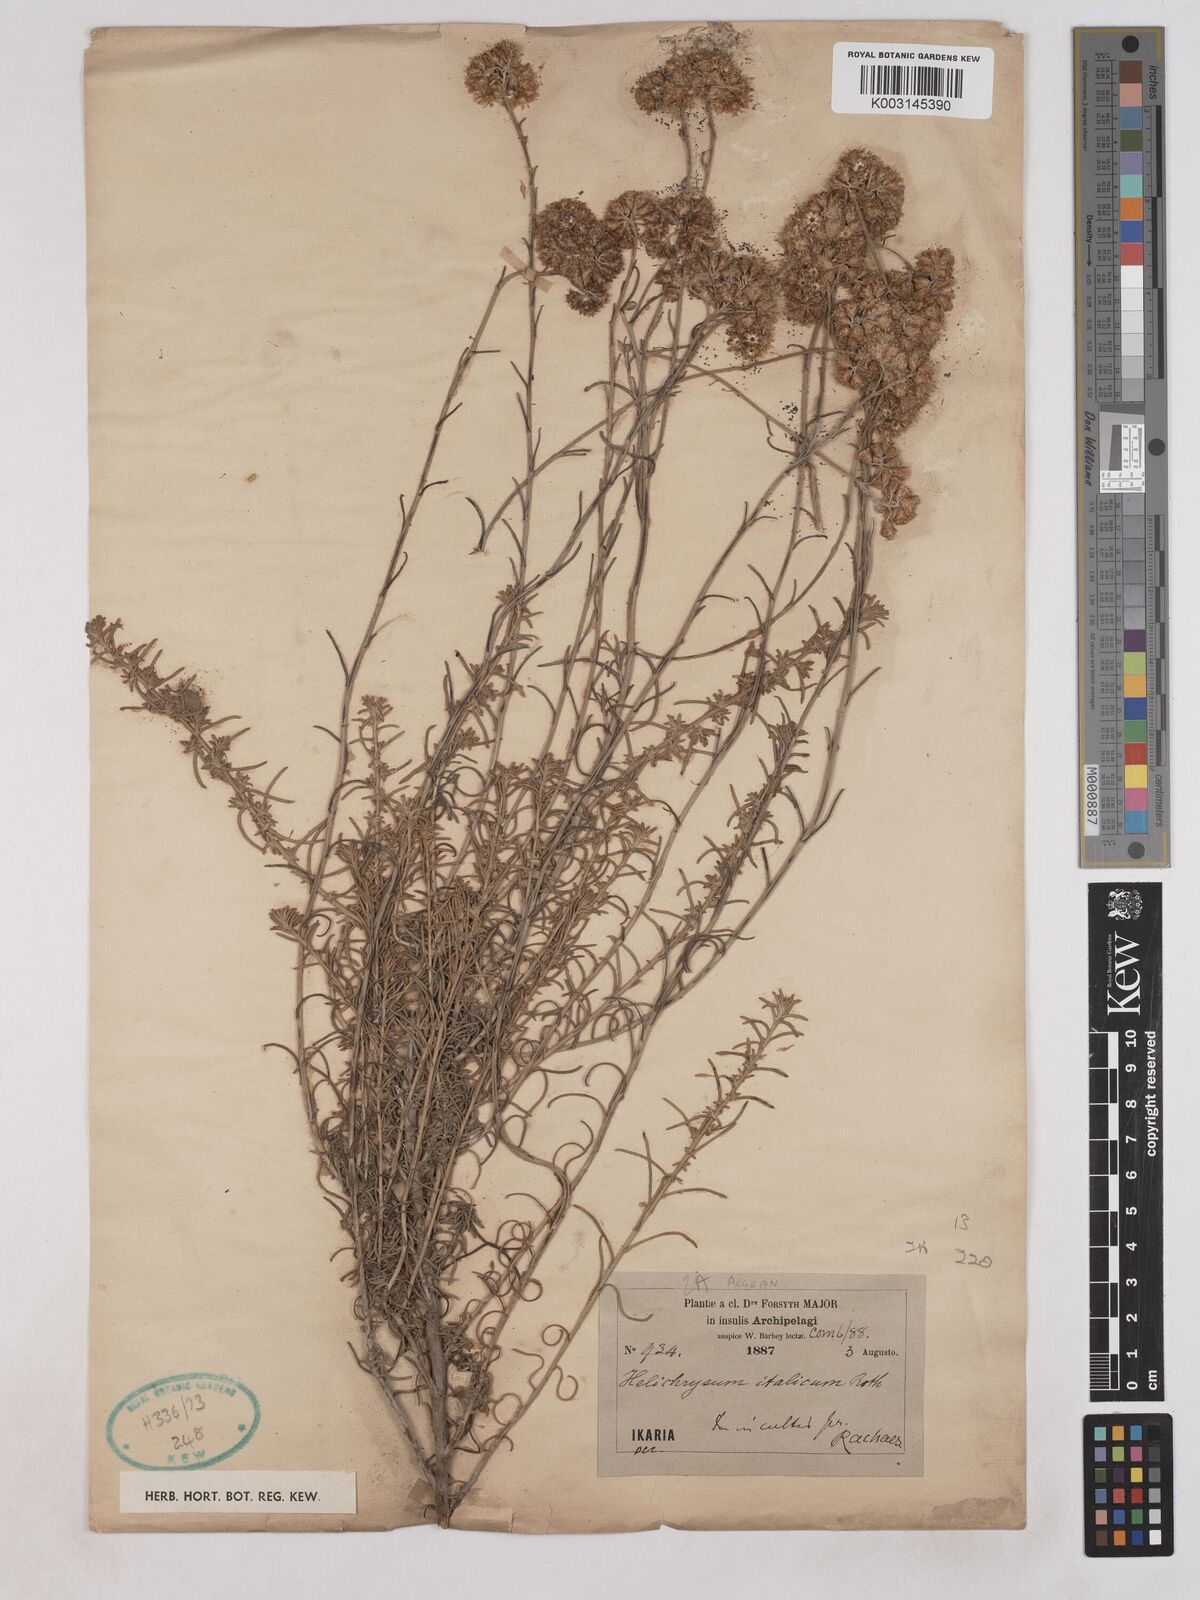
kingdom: Plantae
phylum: Tracheophyta
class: Magnoliopsida
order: Asterales
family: Asteraceae
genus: Helichrysum
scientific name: Helichrysum italicum
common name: Curryplant
